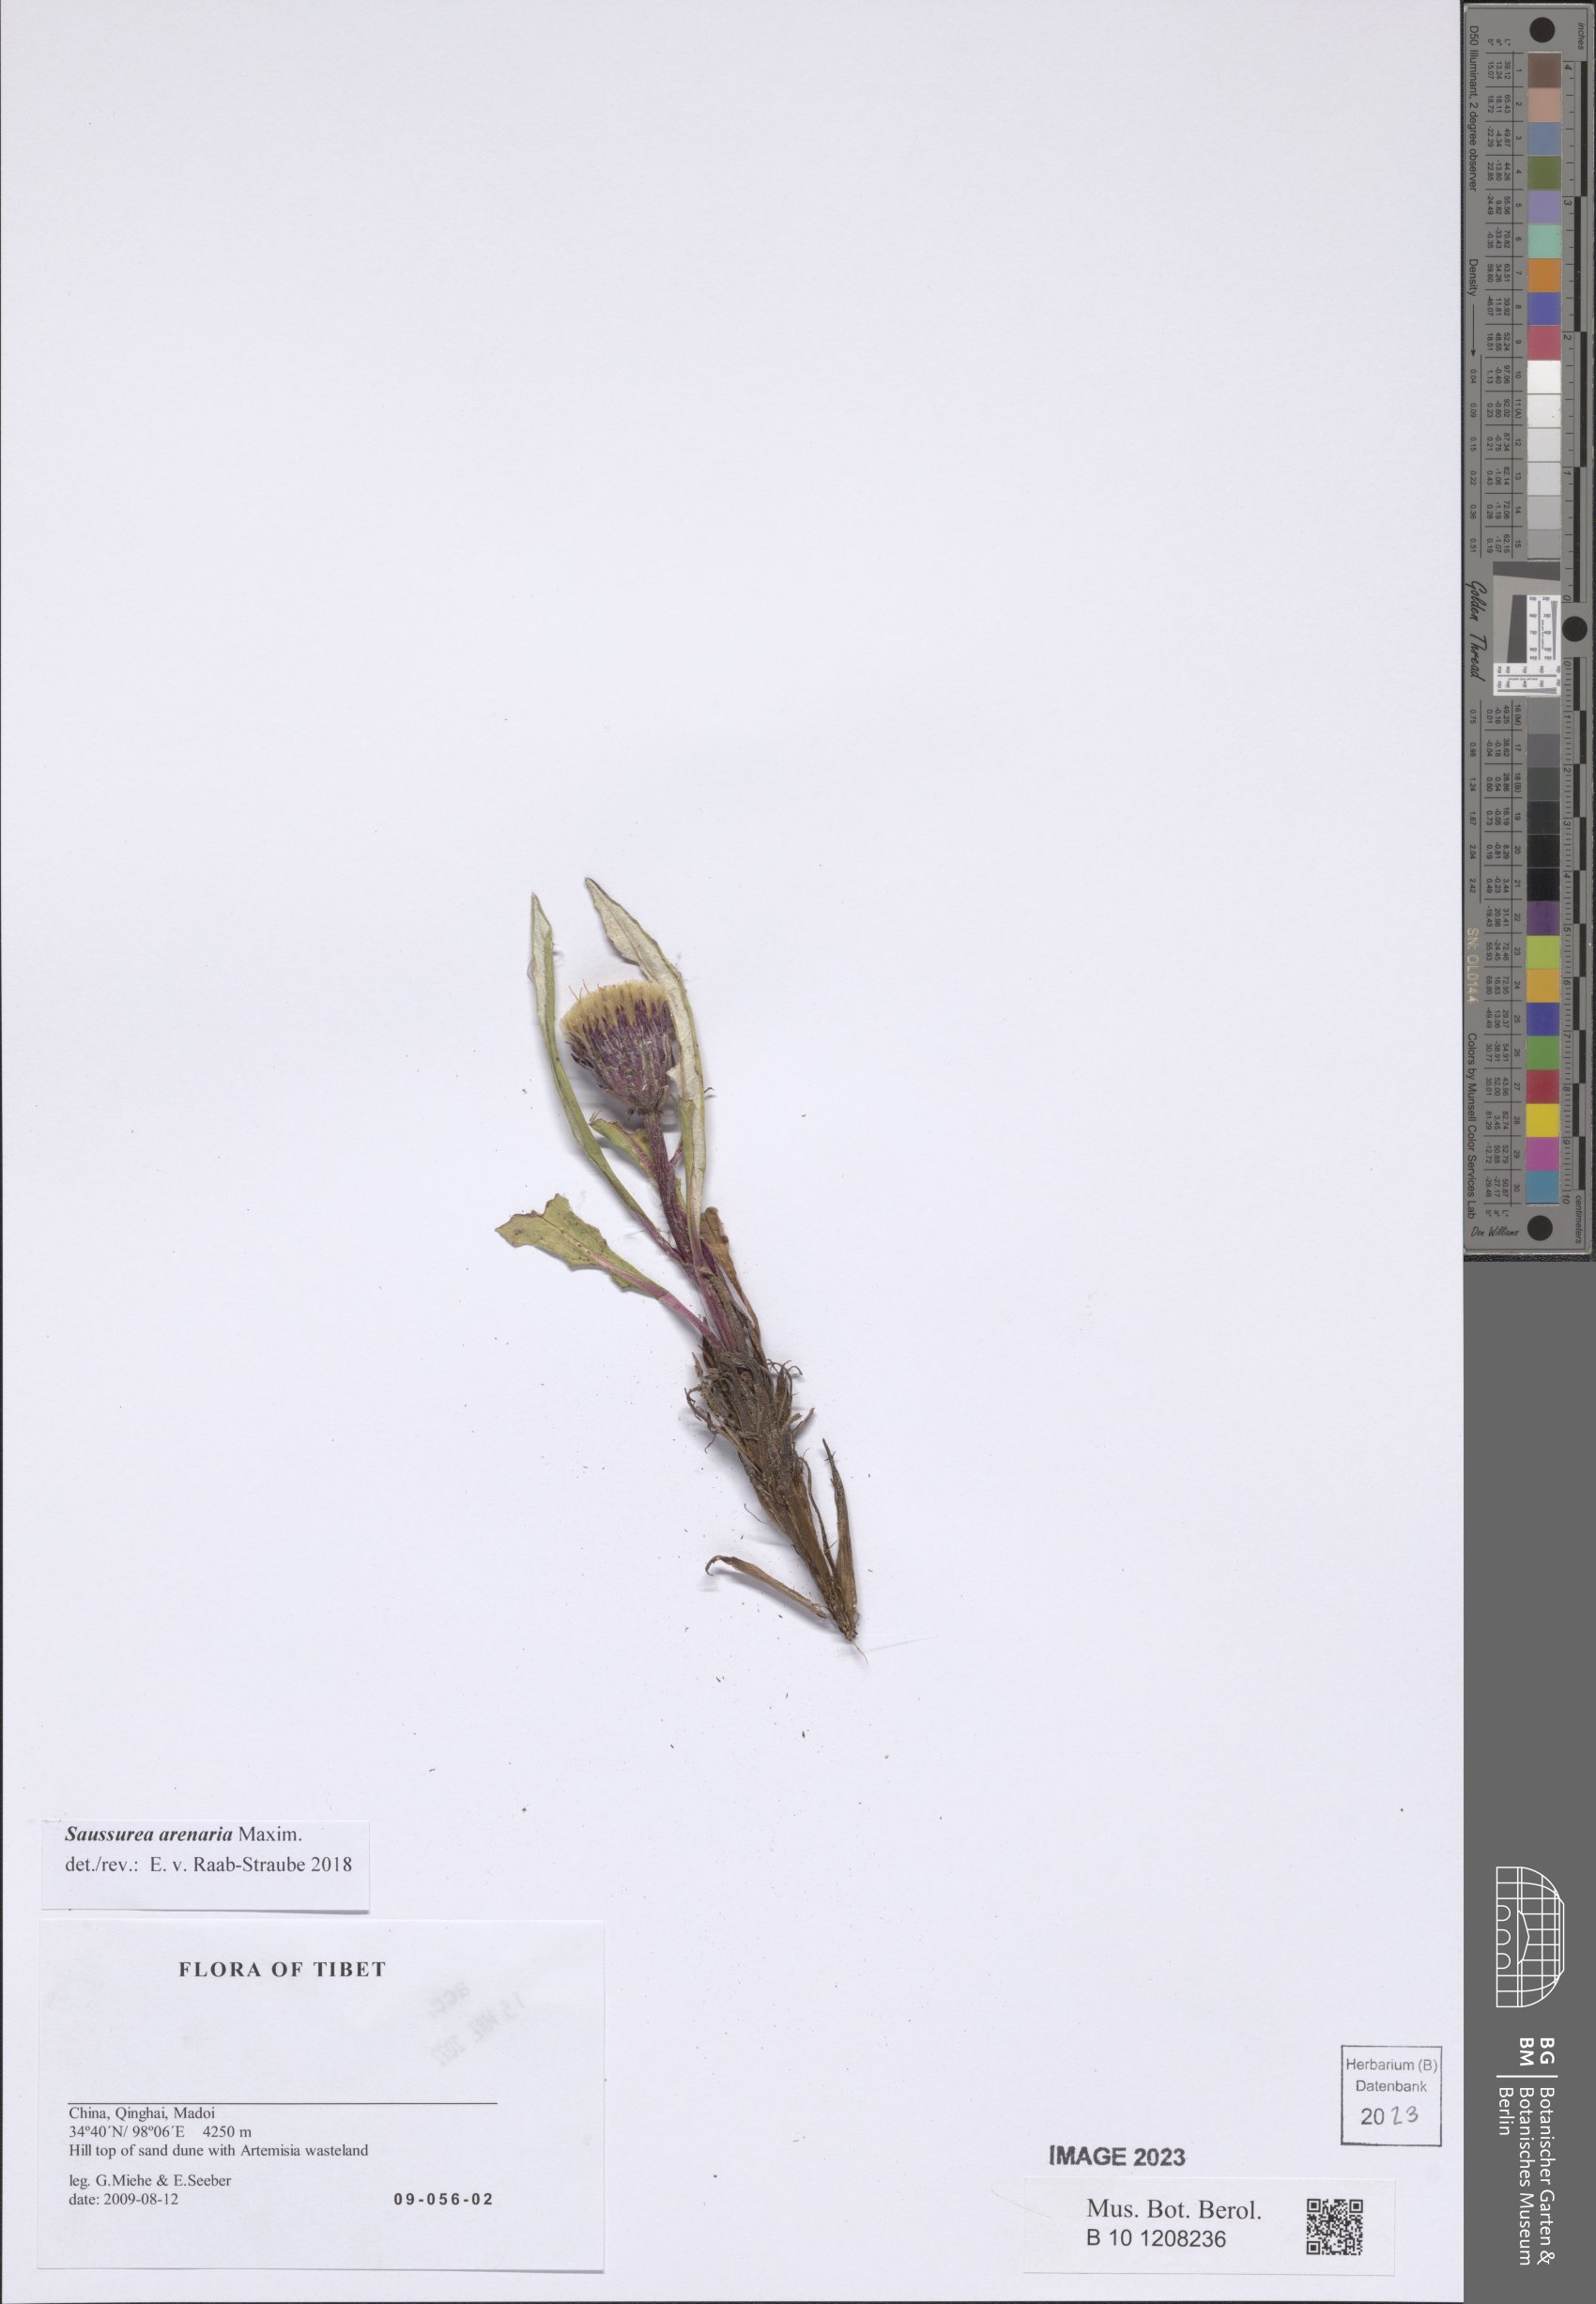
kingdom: Plantae
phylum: Tracheophyta
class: Magnoliopsida
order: Asterales
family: Asteraceae
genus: Saussurea
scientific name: Saussurea arenaria
